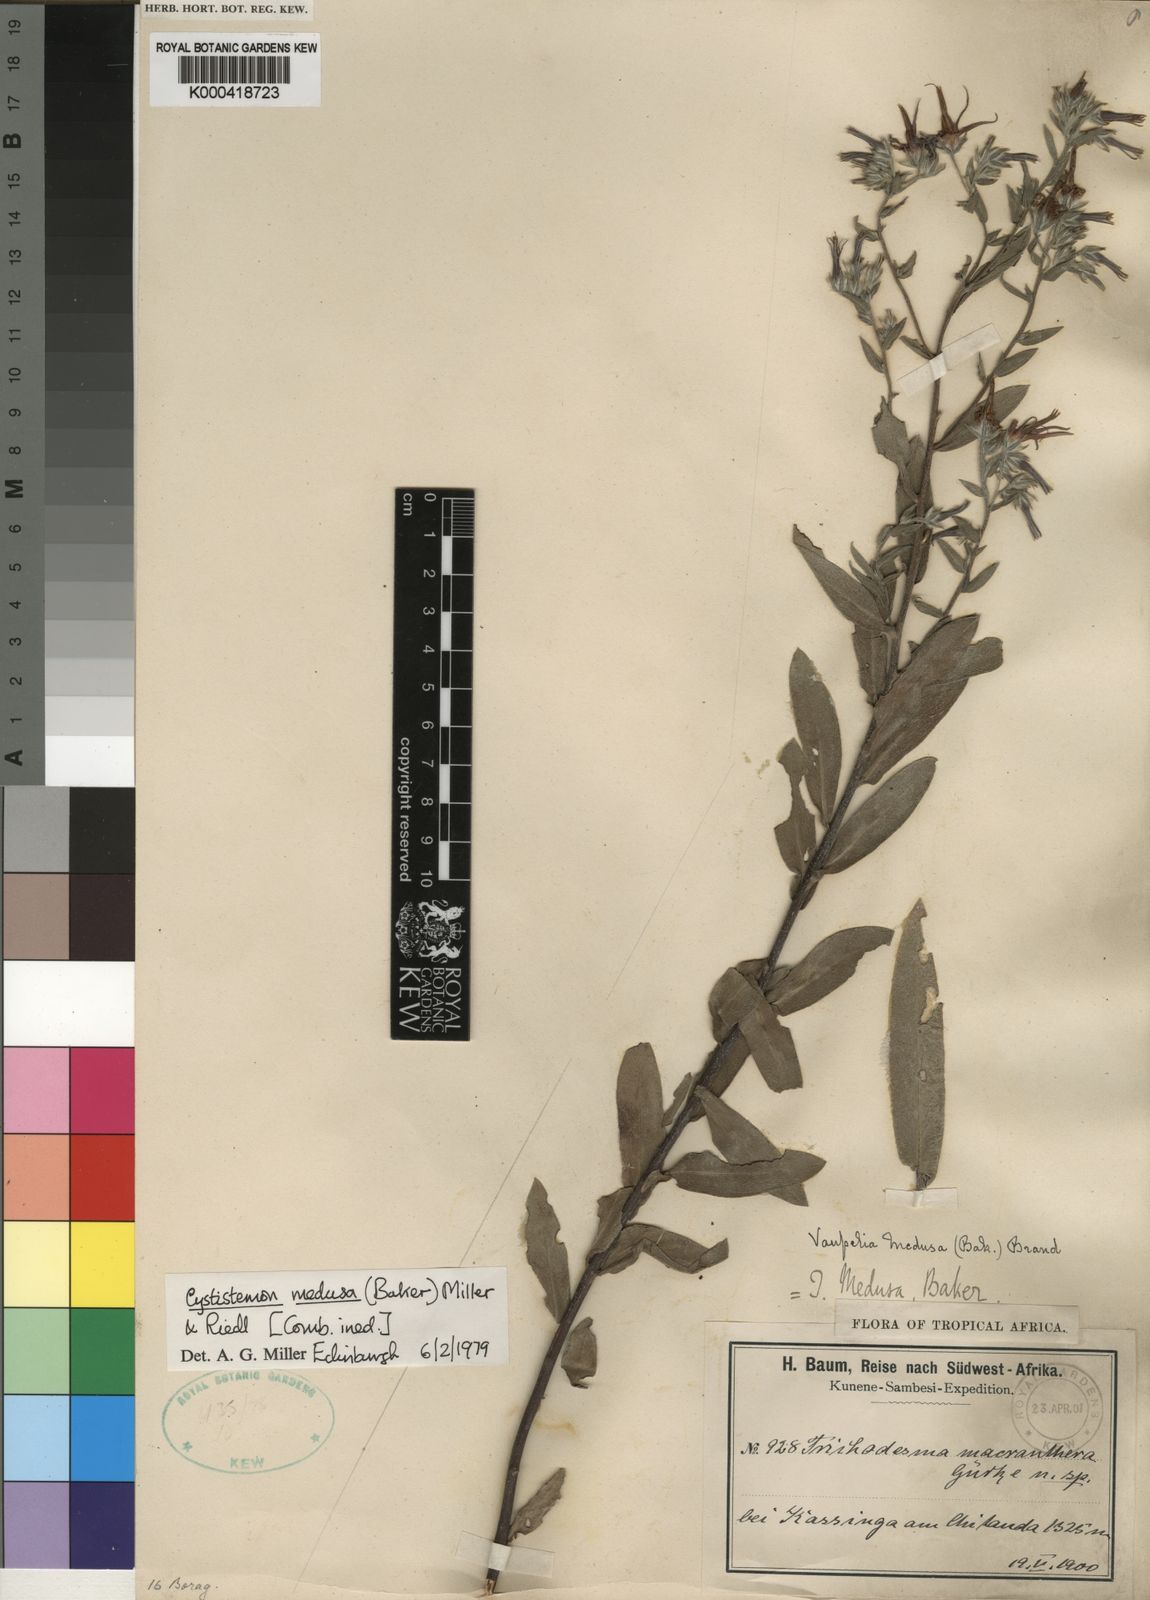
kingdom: Plantae
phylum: Tracheophyta
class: Magnoliopsida
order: Boraginales
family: Boraginaceae
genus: Cystostemon
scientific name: Cystostemon medusa
